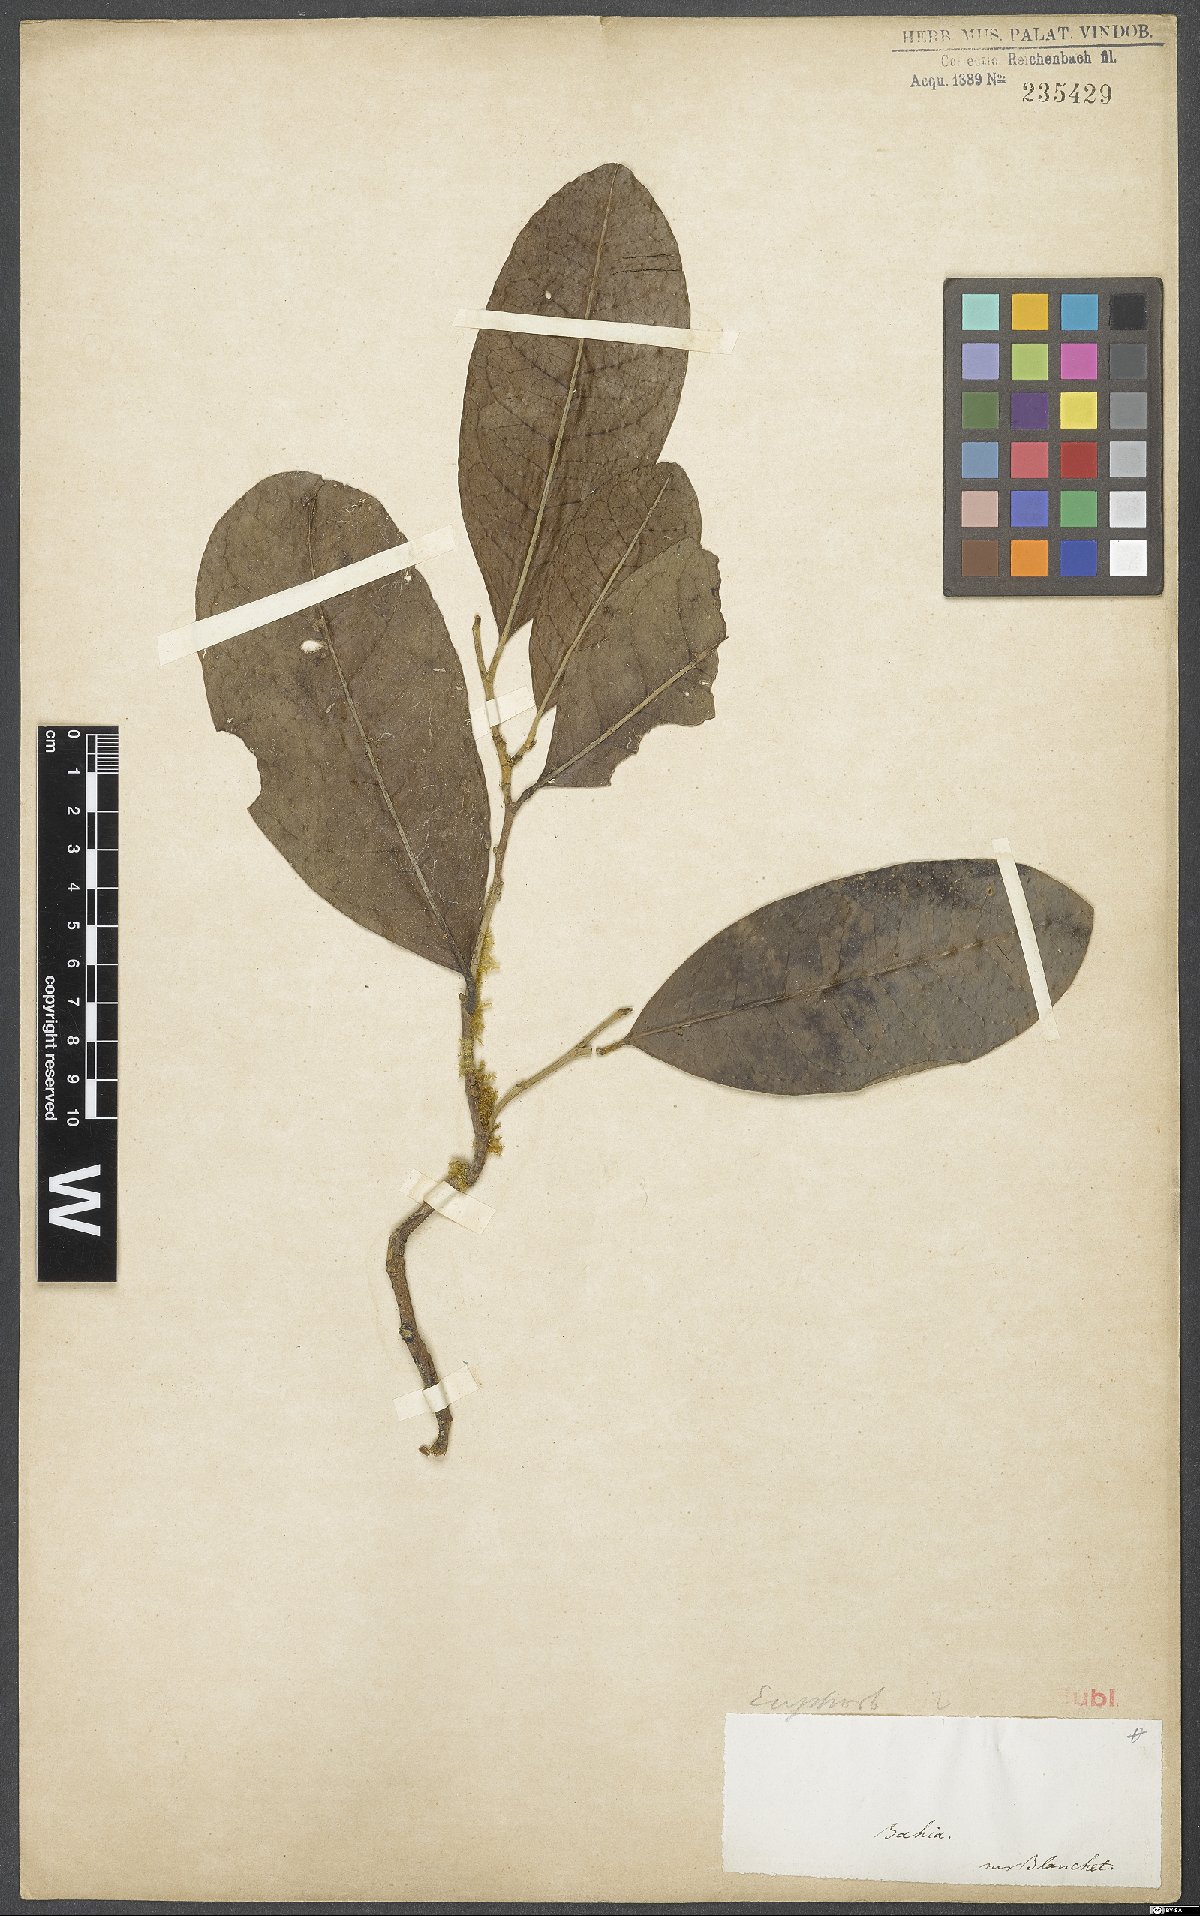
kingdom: Plantae
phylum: Tracheophyta
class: Magnoliopsida
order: Malpighiales
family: Euphorbiaceae
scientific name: Euphorbiaceae
